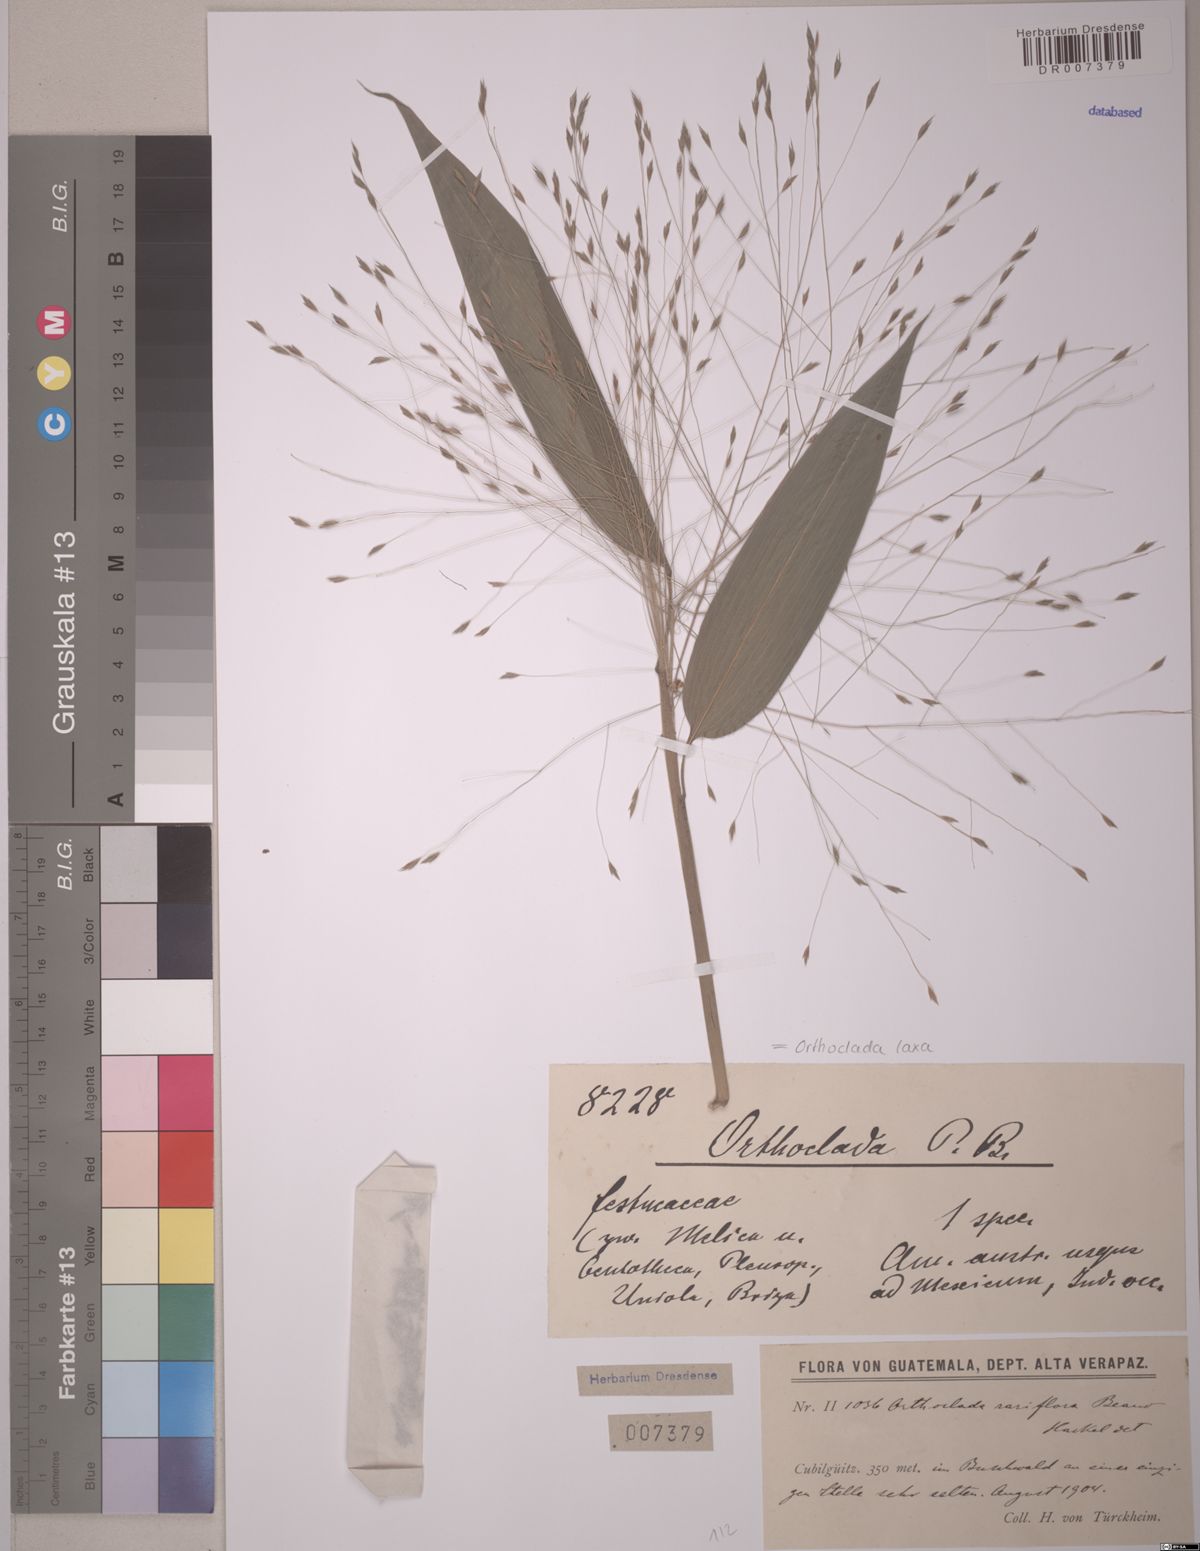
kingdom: Plantae
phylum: Tracheophyta
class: Liliopsida
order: Poales
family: Poaceae
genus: Orthoclada
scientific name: Orthoclada laxa
